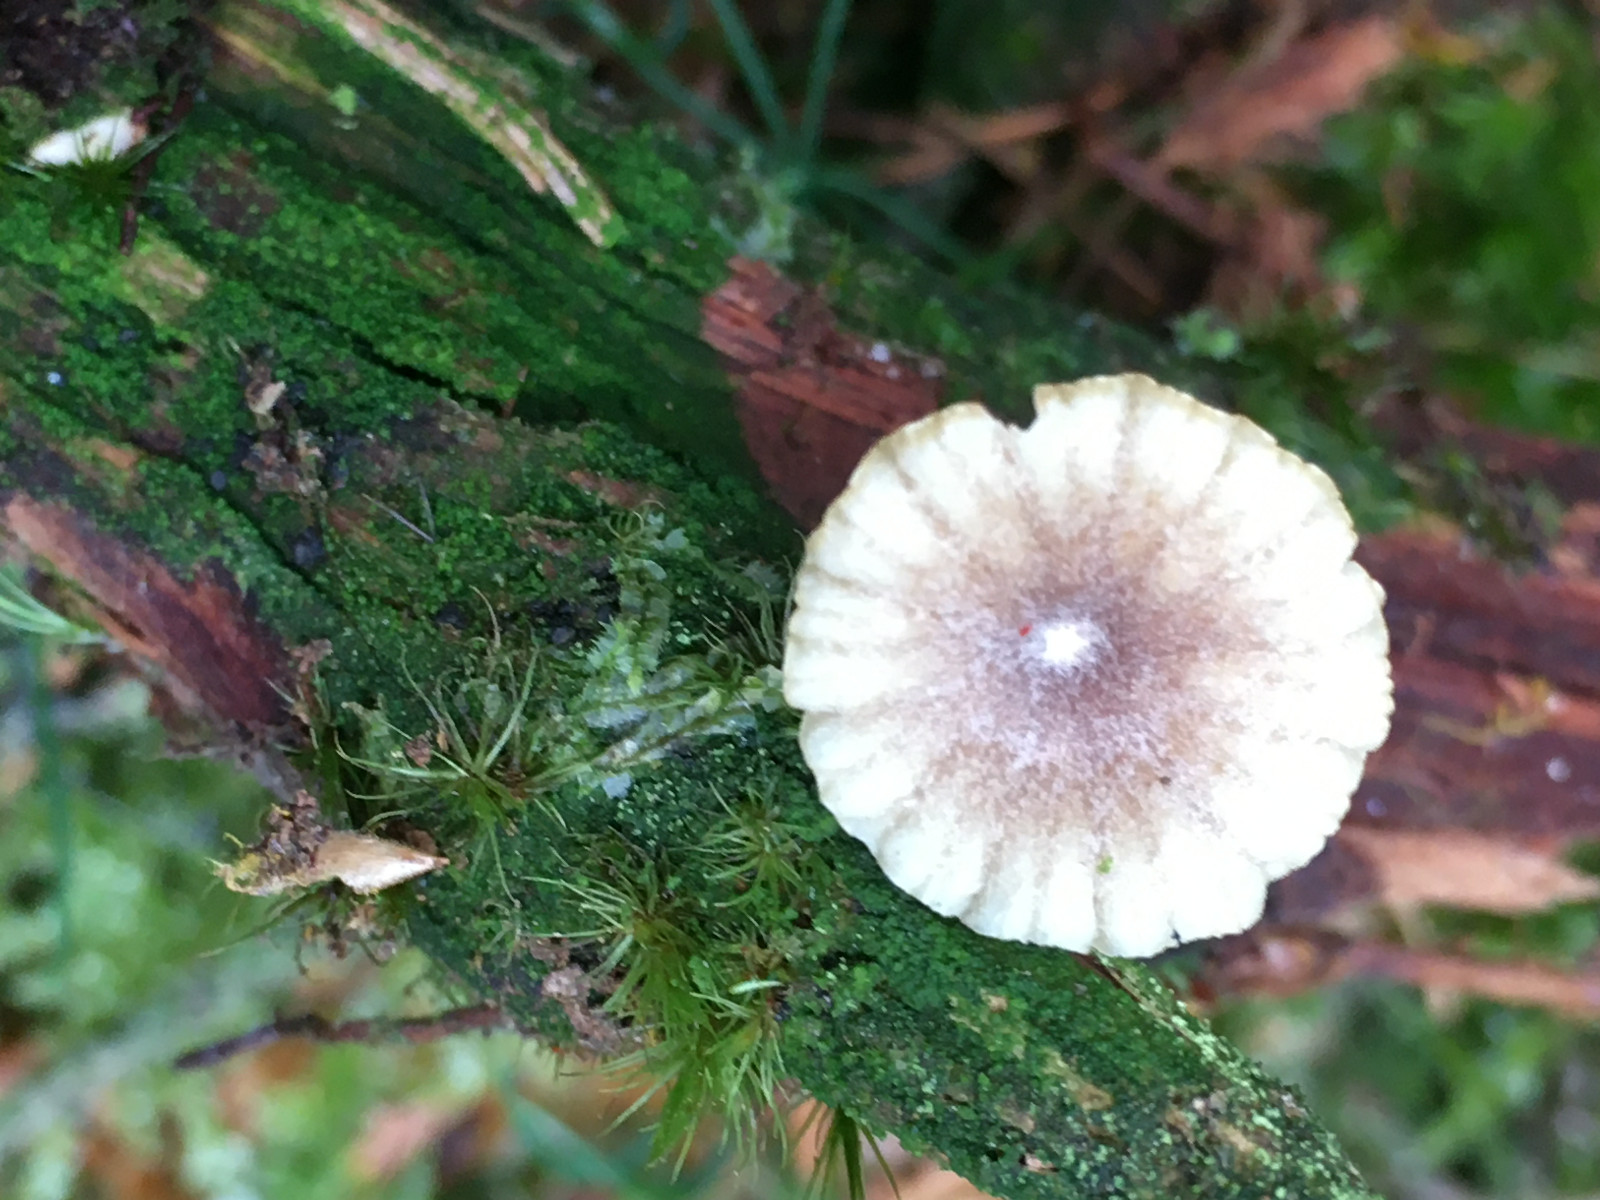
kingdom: Fungi
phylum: Basidiomycota
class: Agaricomycetes
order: Agaricales
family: Hygrophoraceae
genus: Lichenomphalia
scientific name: Lichenomphalia umbellifera
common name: tørve-lavhat
